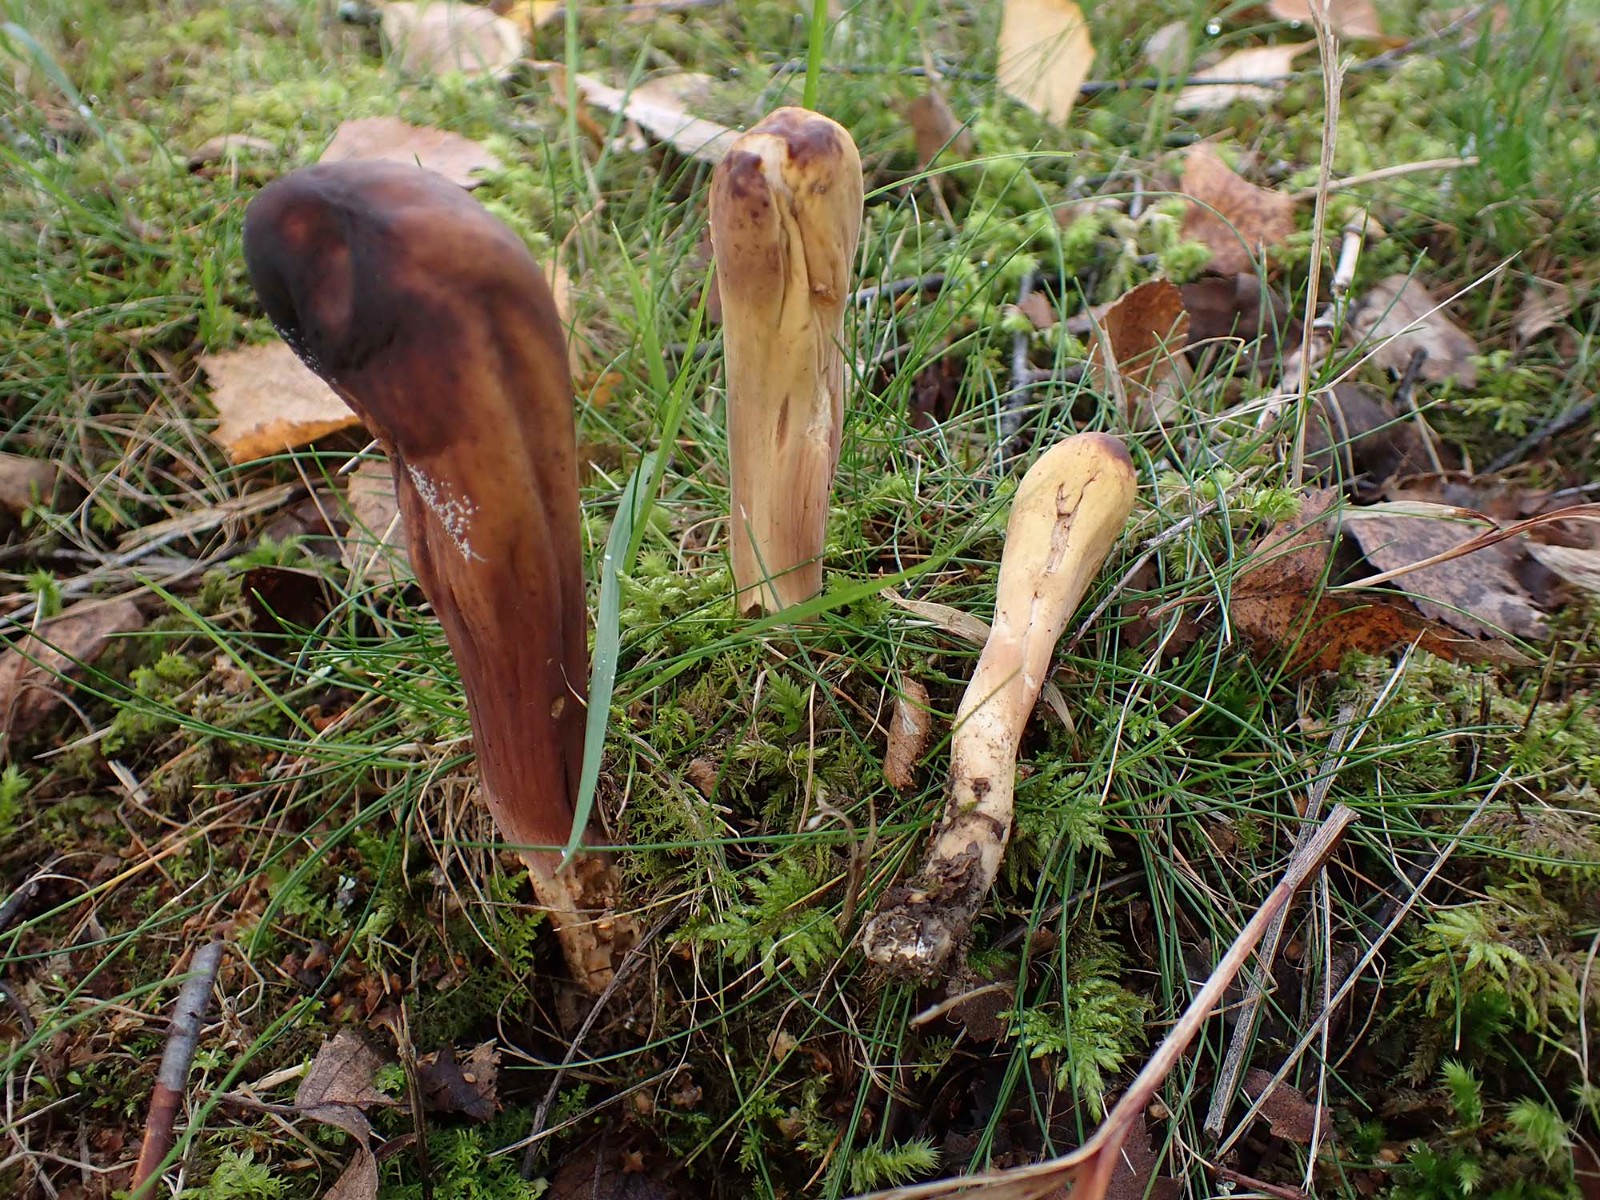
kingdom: Fungi
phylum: Basidiomycota
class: Agaricomycetes
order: Gomphales
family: Clavariadelphaceae
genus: Clavariadelphus
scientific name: Clavariadelphus pistillaris
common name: herkules-kæmpekølle
